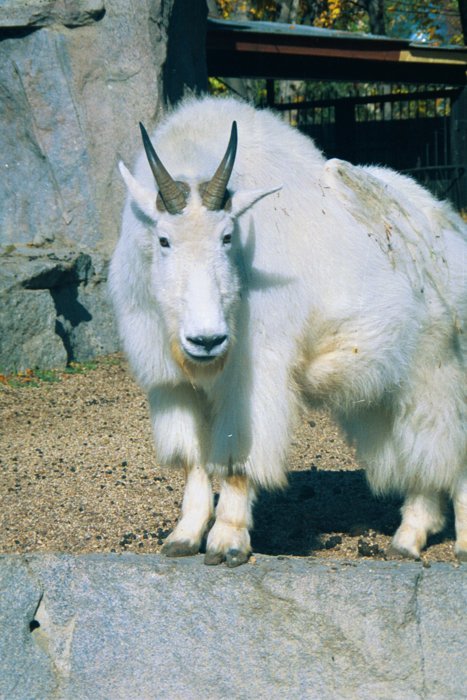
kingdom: Animalia
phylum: Chordata
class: Mammalia
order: Artiodactyla
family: Bovidae
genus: Oreamnos
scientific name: Oreamnos americanus
